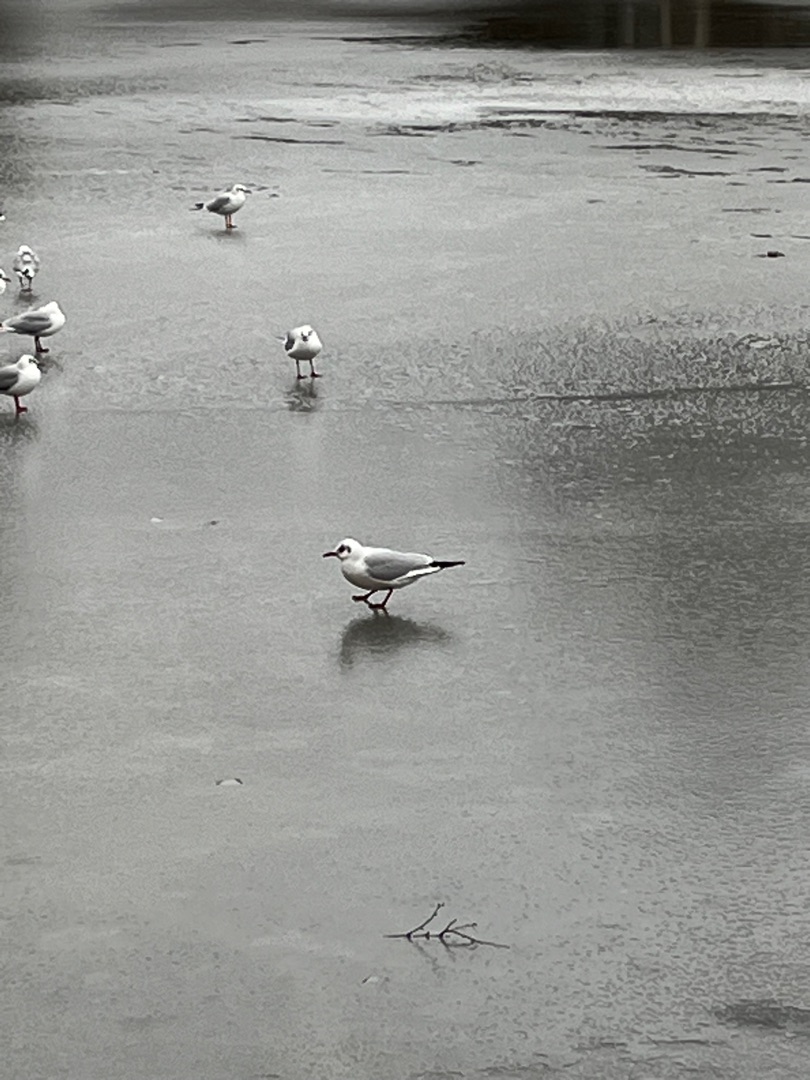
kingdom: Animalia
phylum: Chordata
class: Aves
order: Charadriiformes
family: Laridae
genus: Chroicocephalus
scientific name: Chroicocephalus ridibundus
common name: Hættemåge
